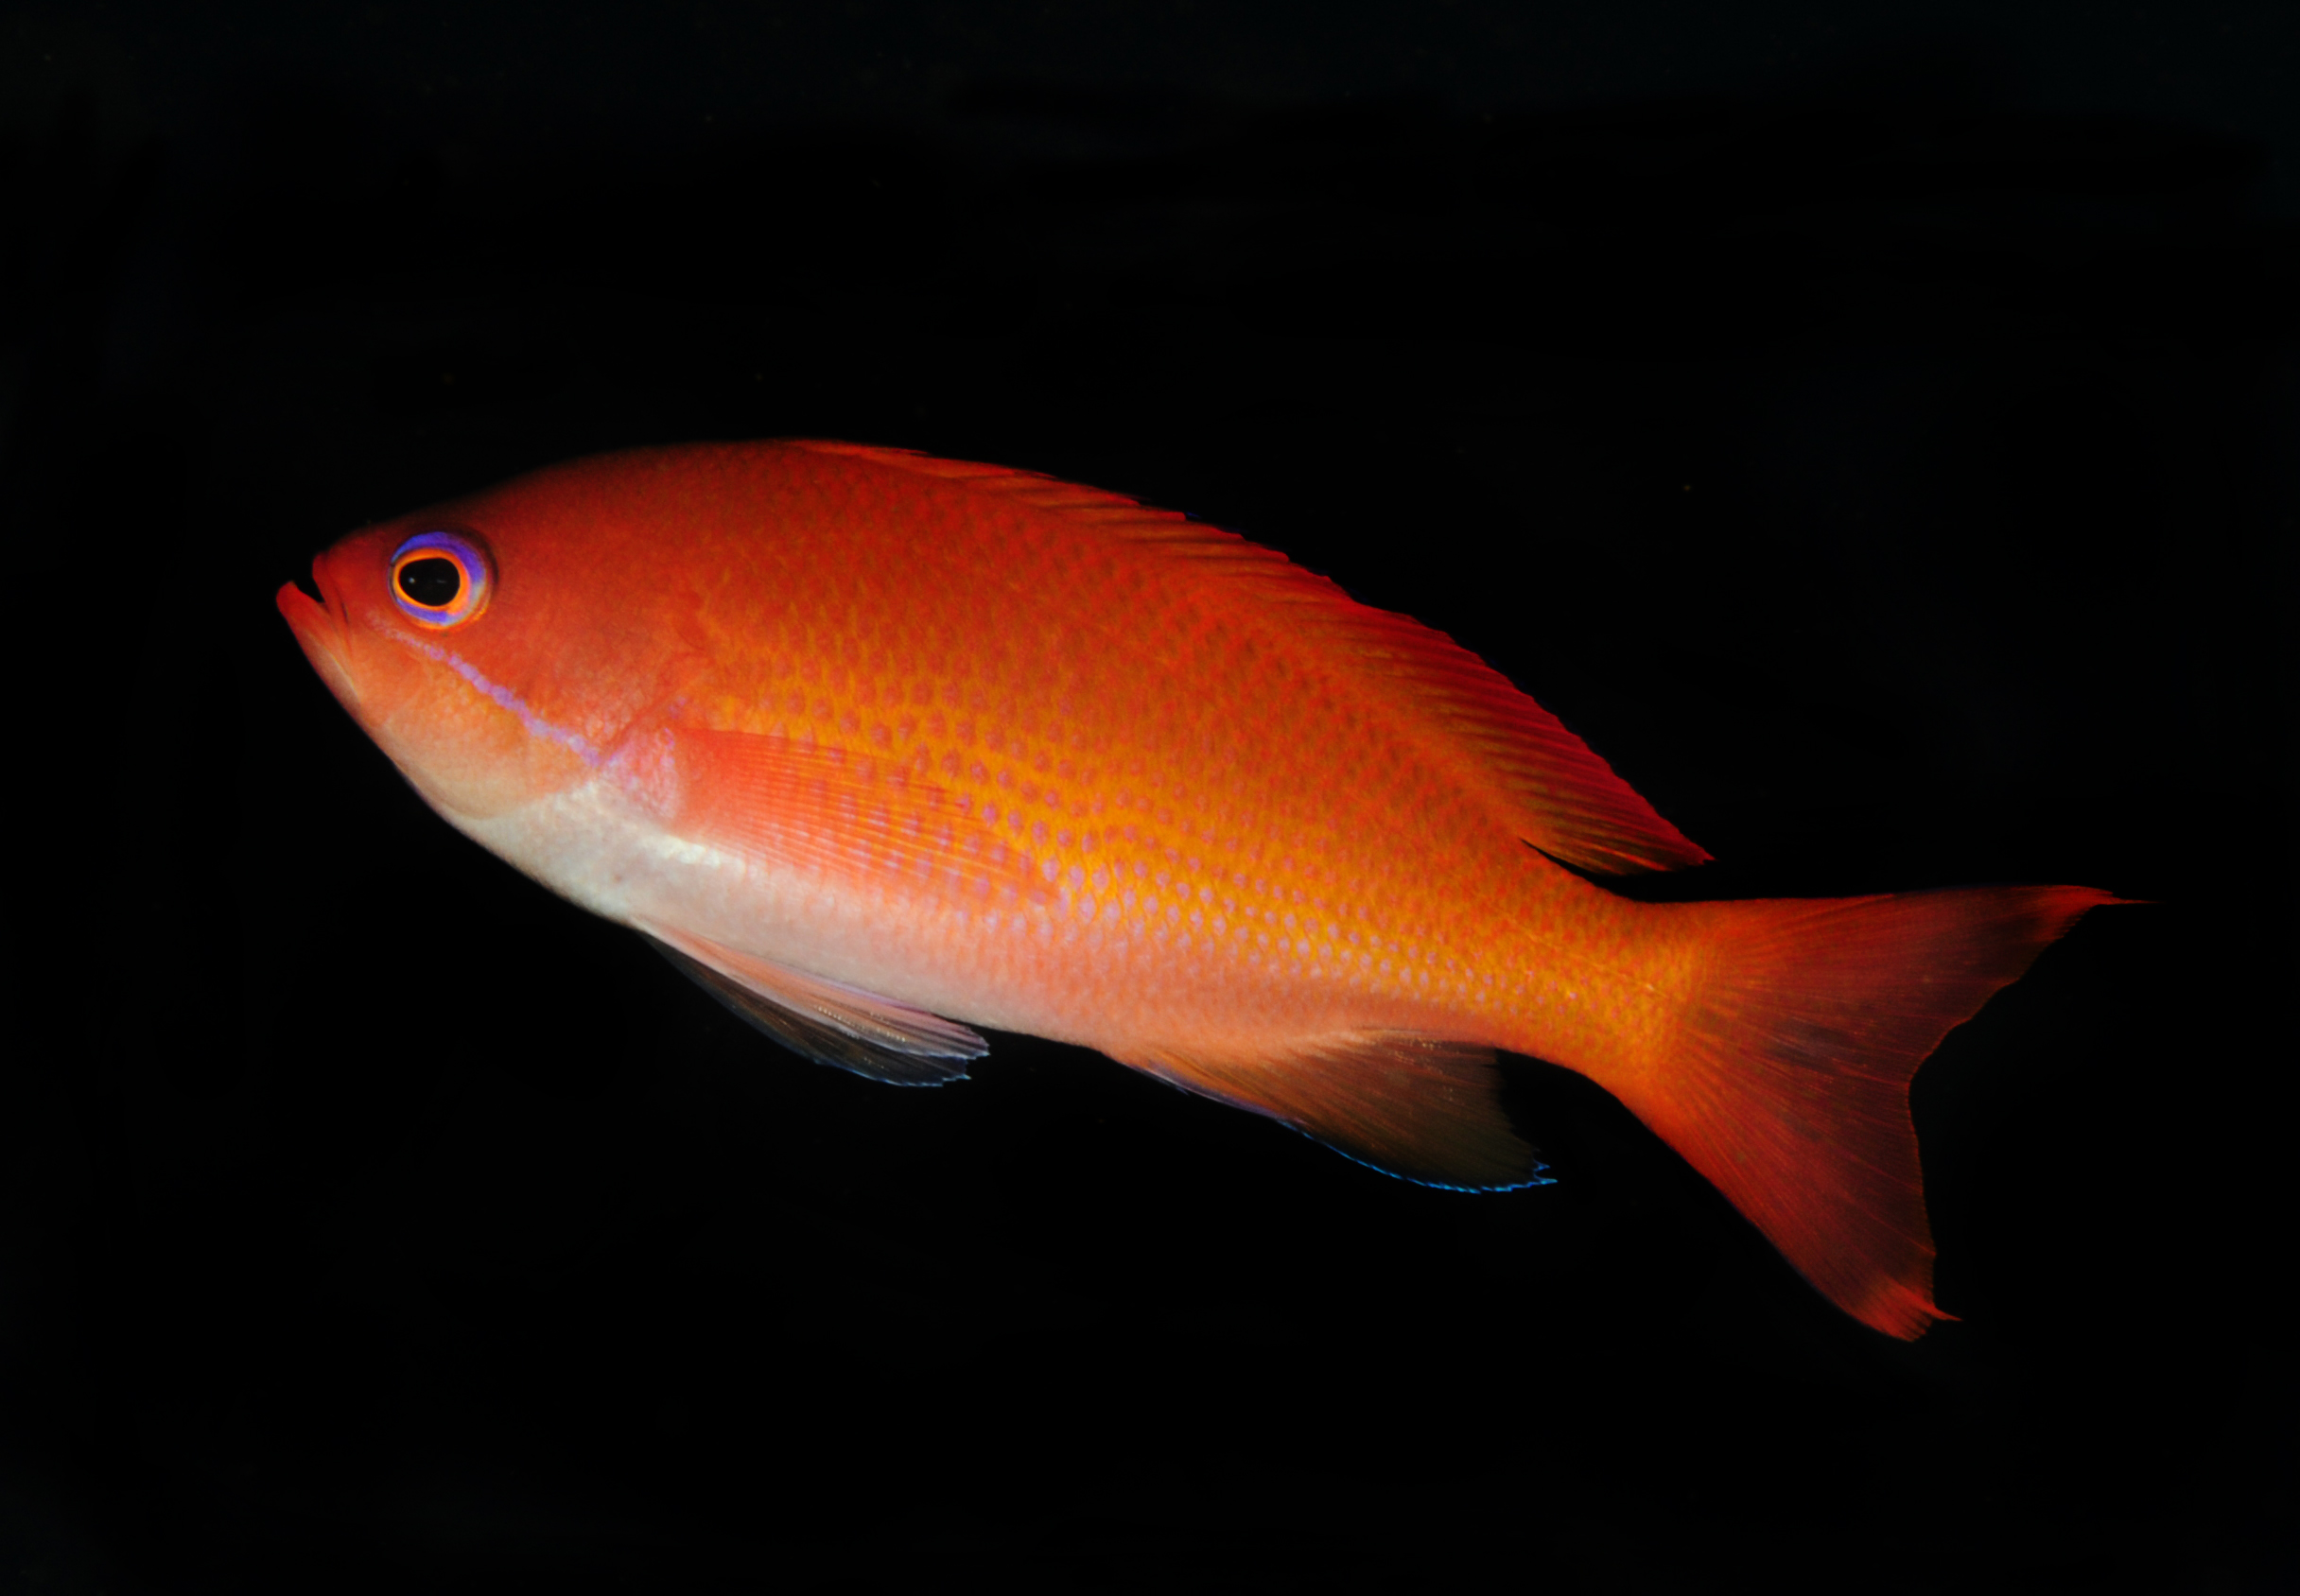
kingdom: Animalia
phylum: Chordata
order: Perciformes
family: Serranidae
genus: Pseudanthias
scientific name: Pseudanthias connelli
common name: Harlequin goldie
